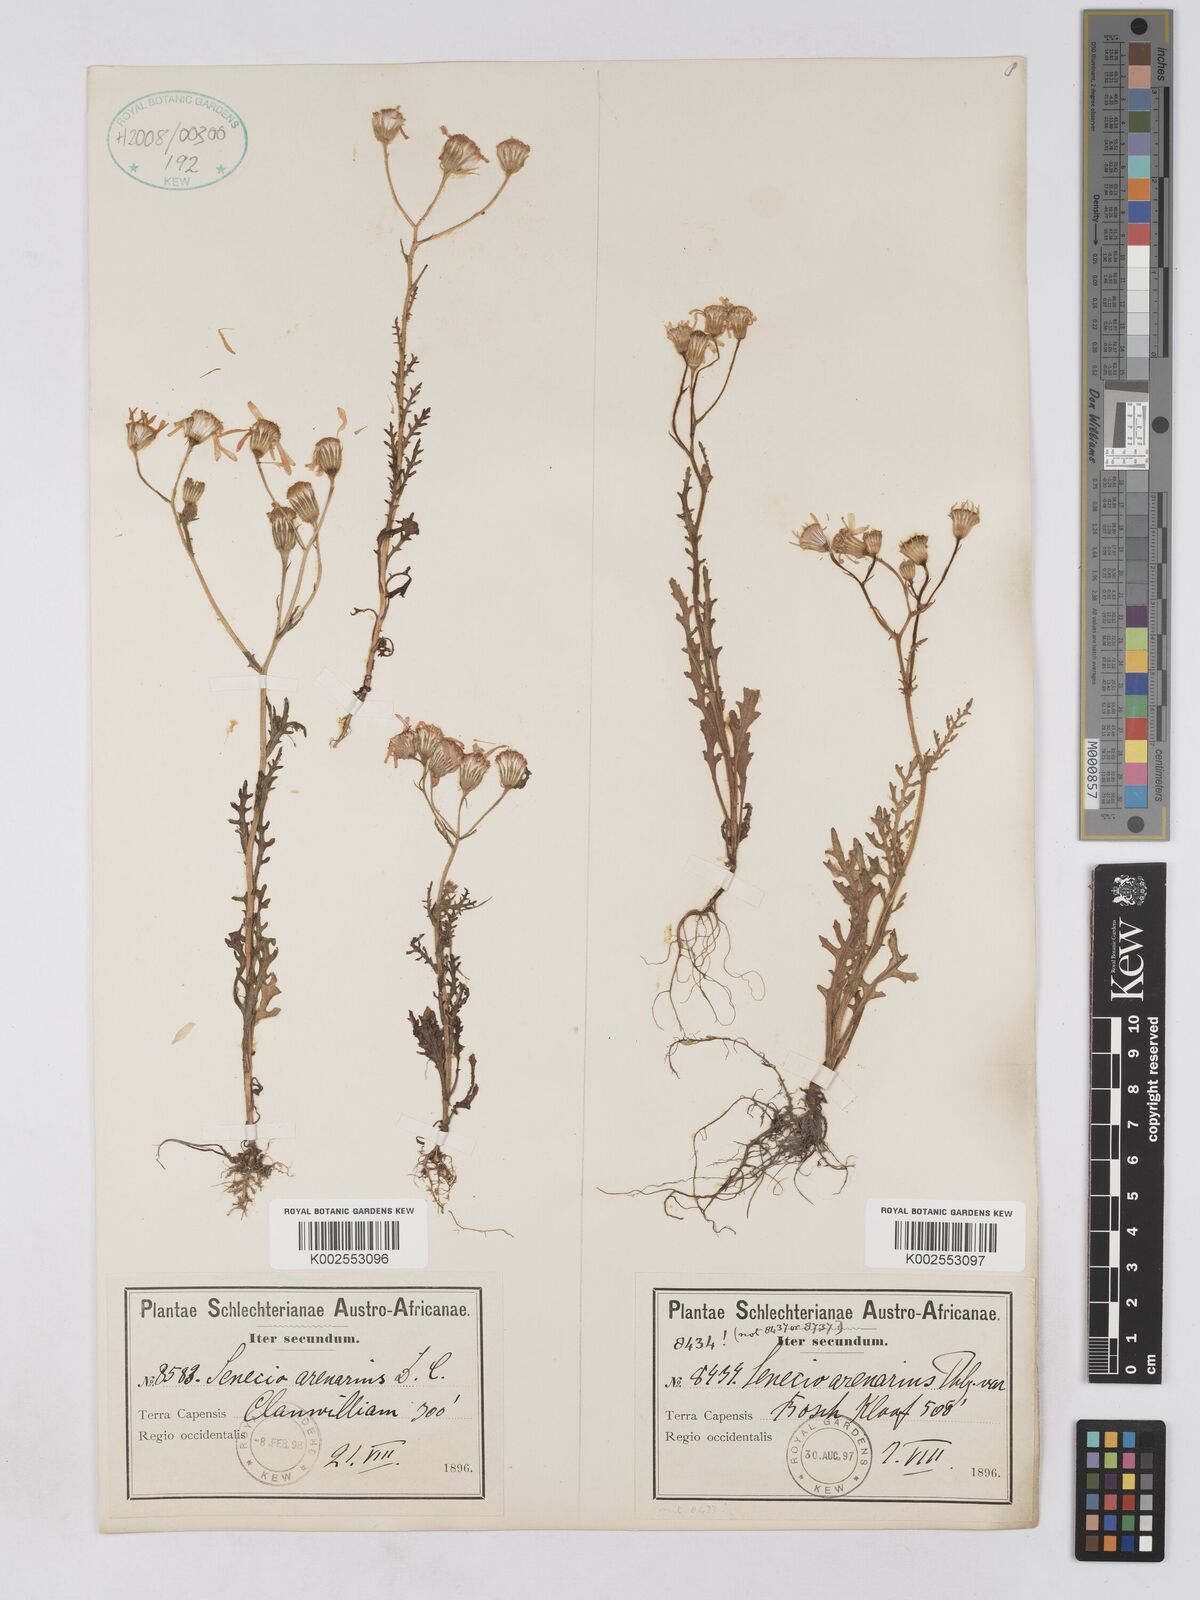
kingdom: Plantae
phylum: Tracheophyta
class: Magnoliopsida
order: Asterales
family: Asteraceae
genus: Senecio
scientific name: Senecio arenarius
